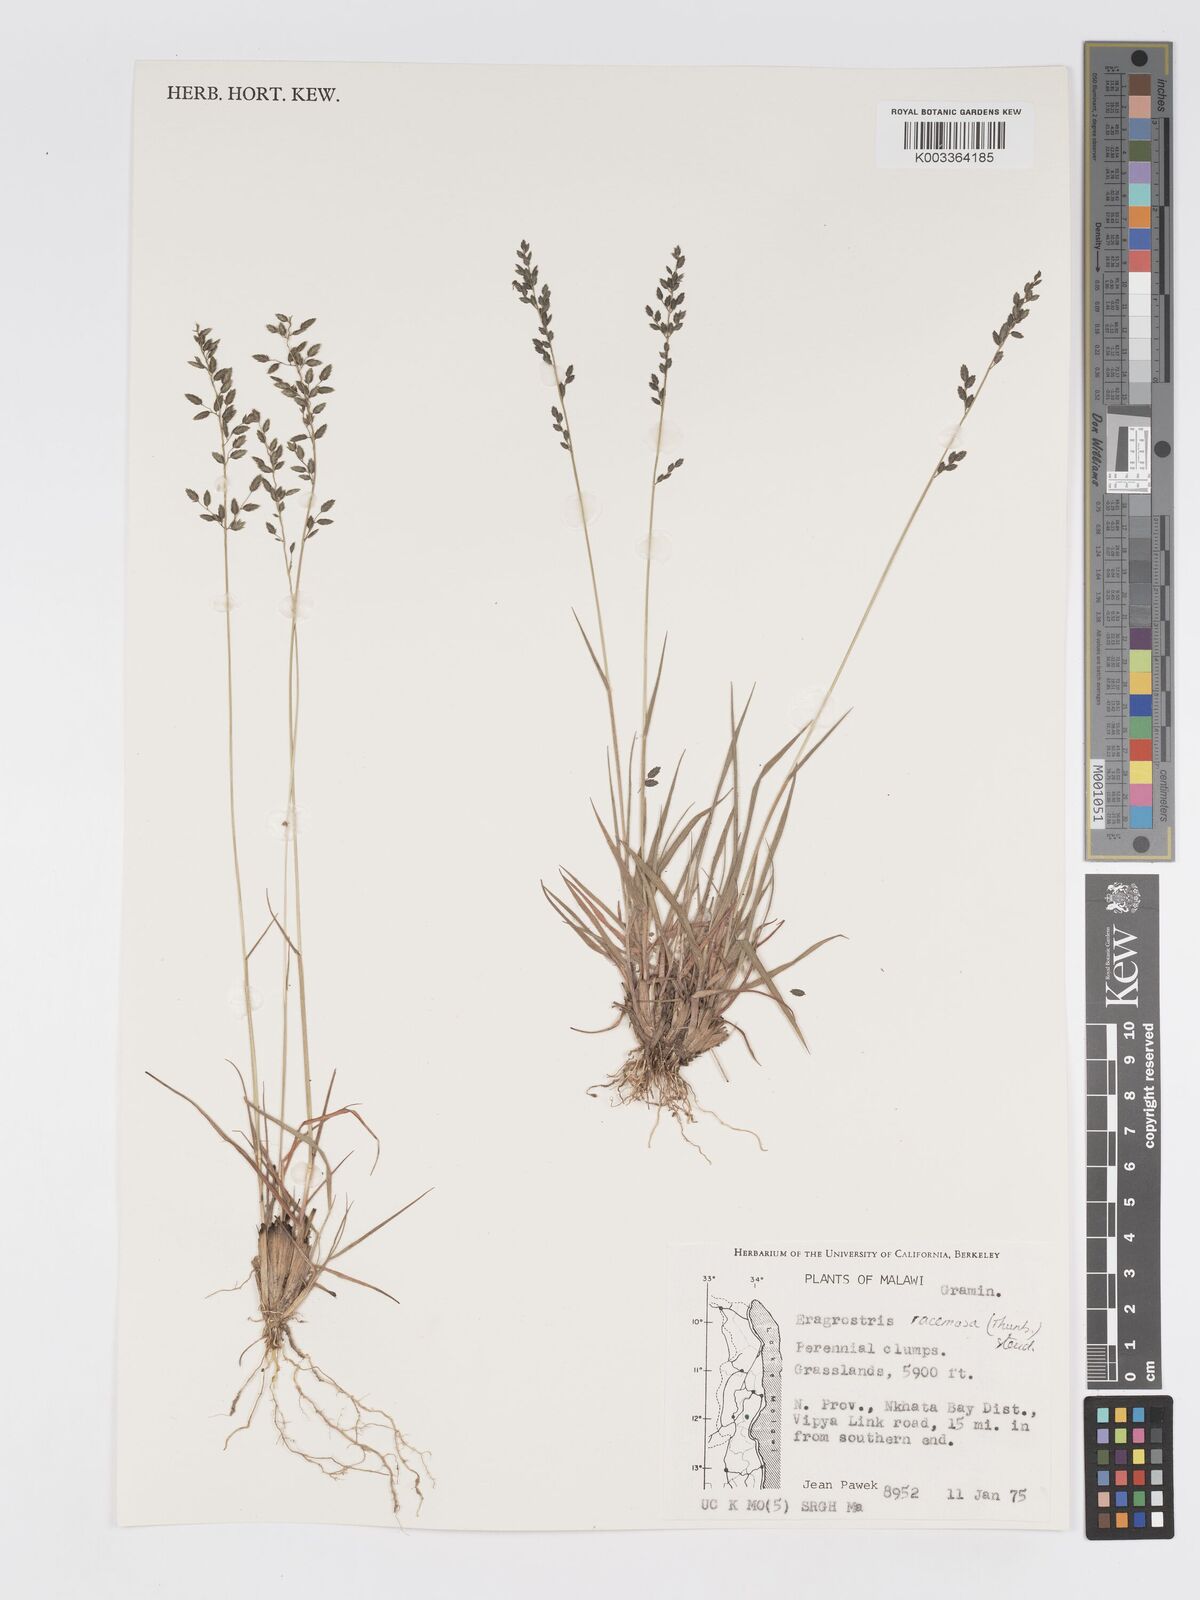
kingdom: Plantae
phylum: Tracheophyta
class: Liliopsida
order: Poales
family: Poaceae
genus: Eragrostis
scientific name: Eragrostis racemosa
